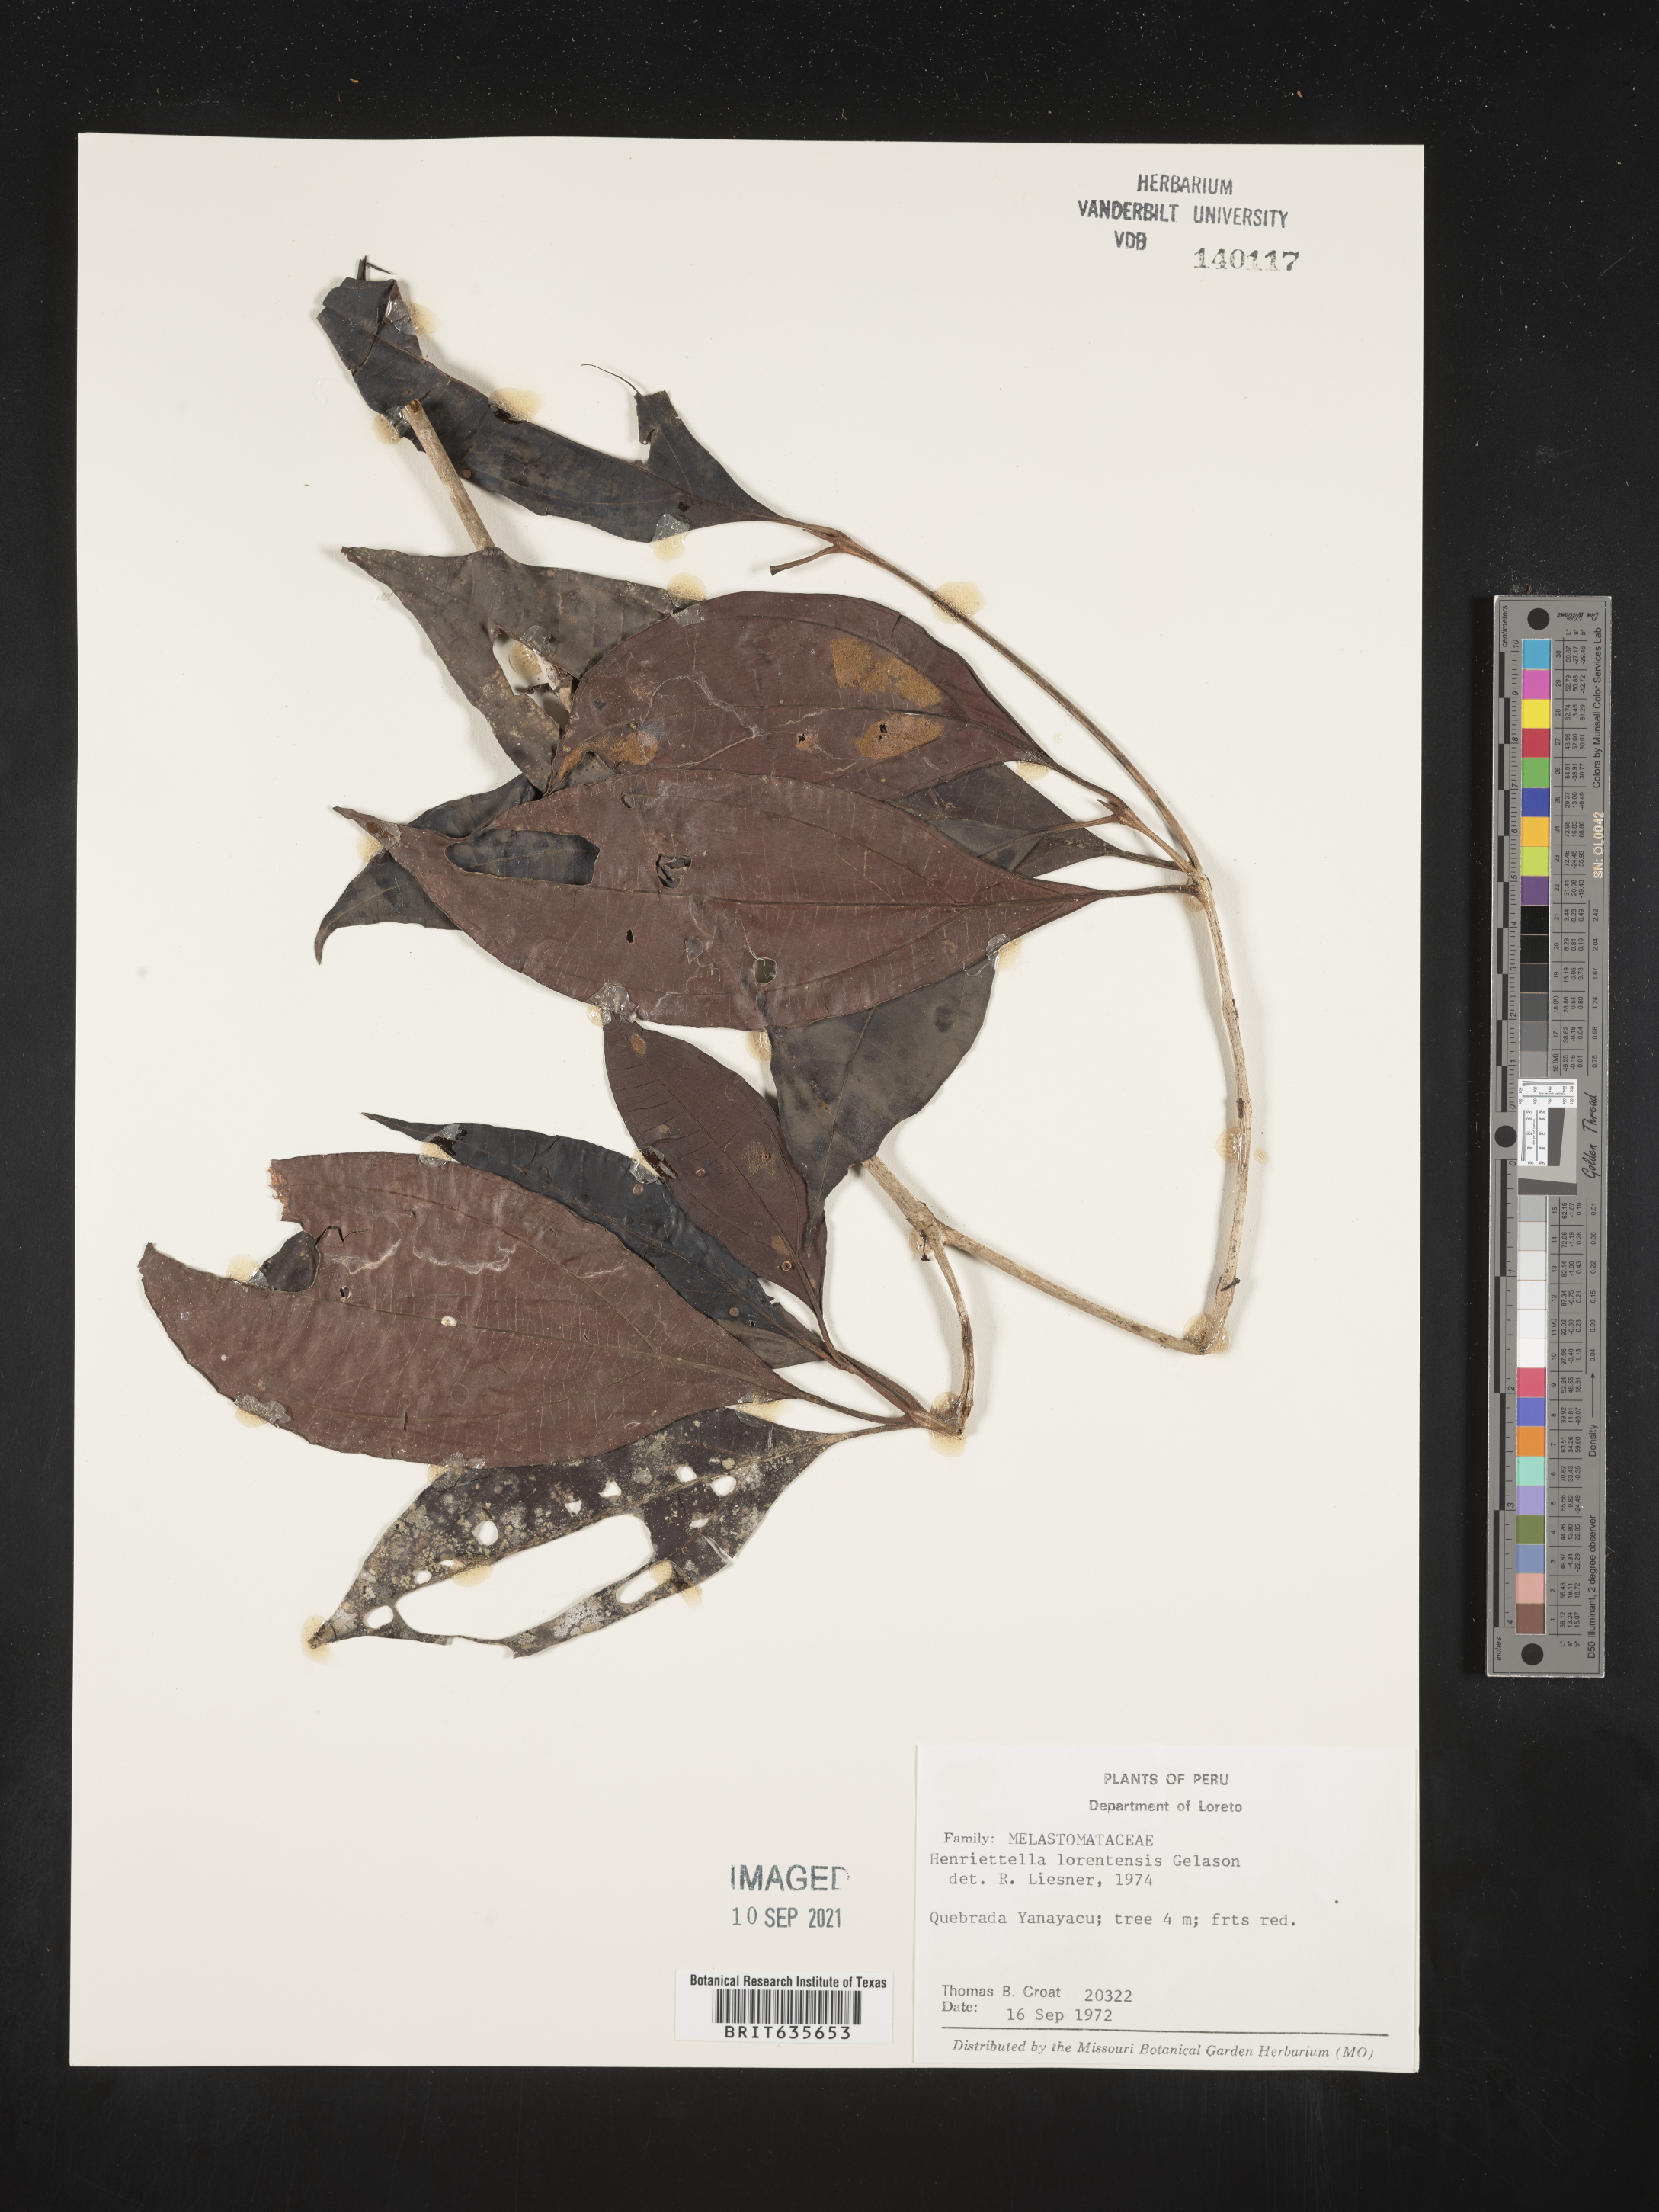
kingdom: Plantae
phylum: Tracheophyta
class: Magnoliopsida
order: Myrtales
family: Melastomataceae
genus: Henriettea
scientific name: Henriettea
